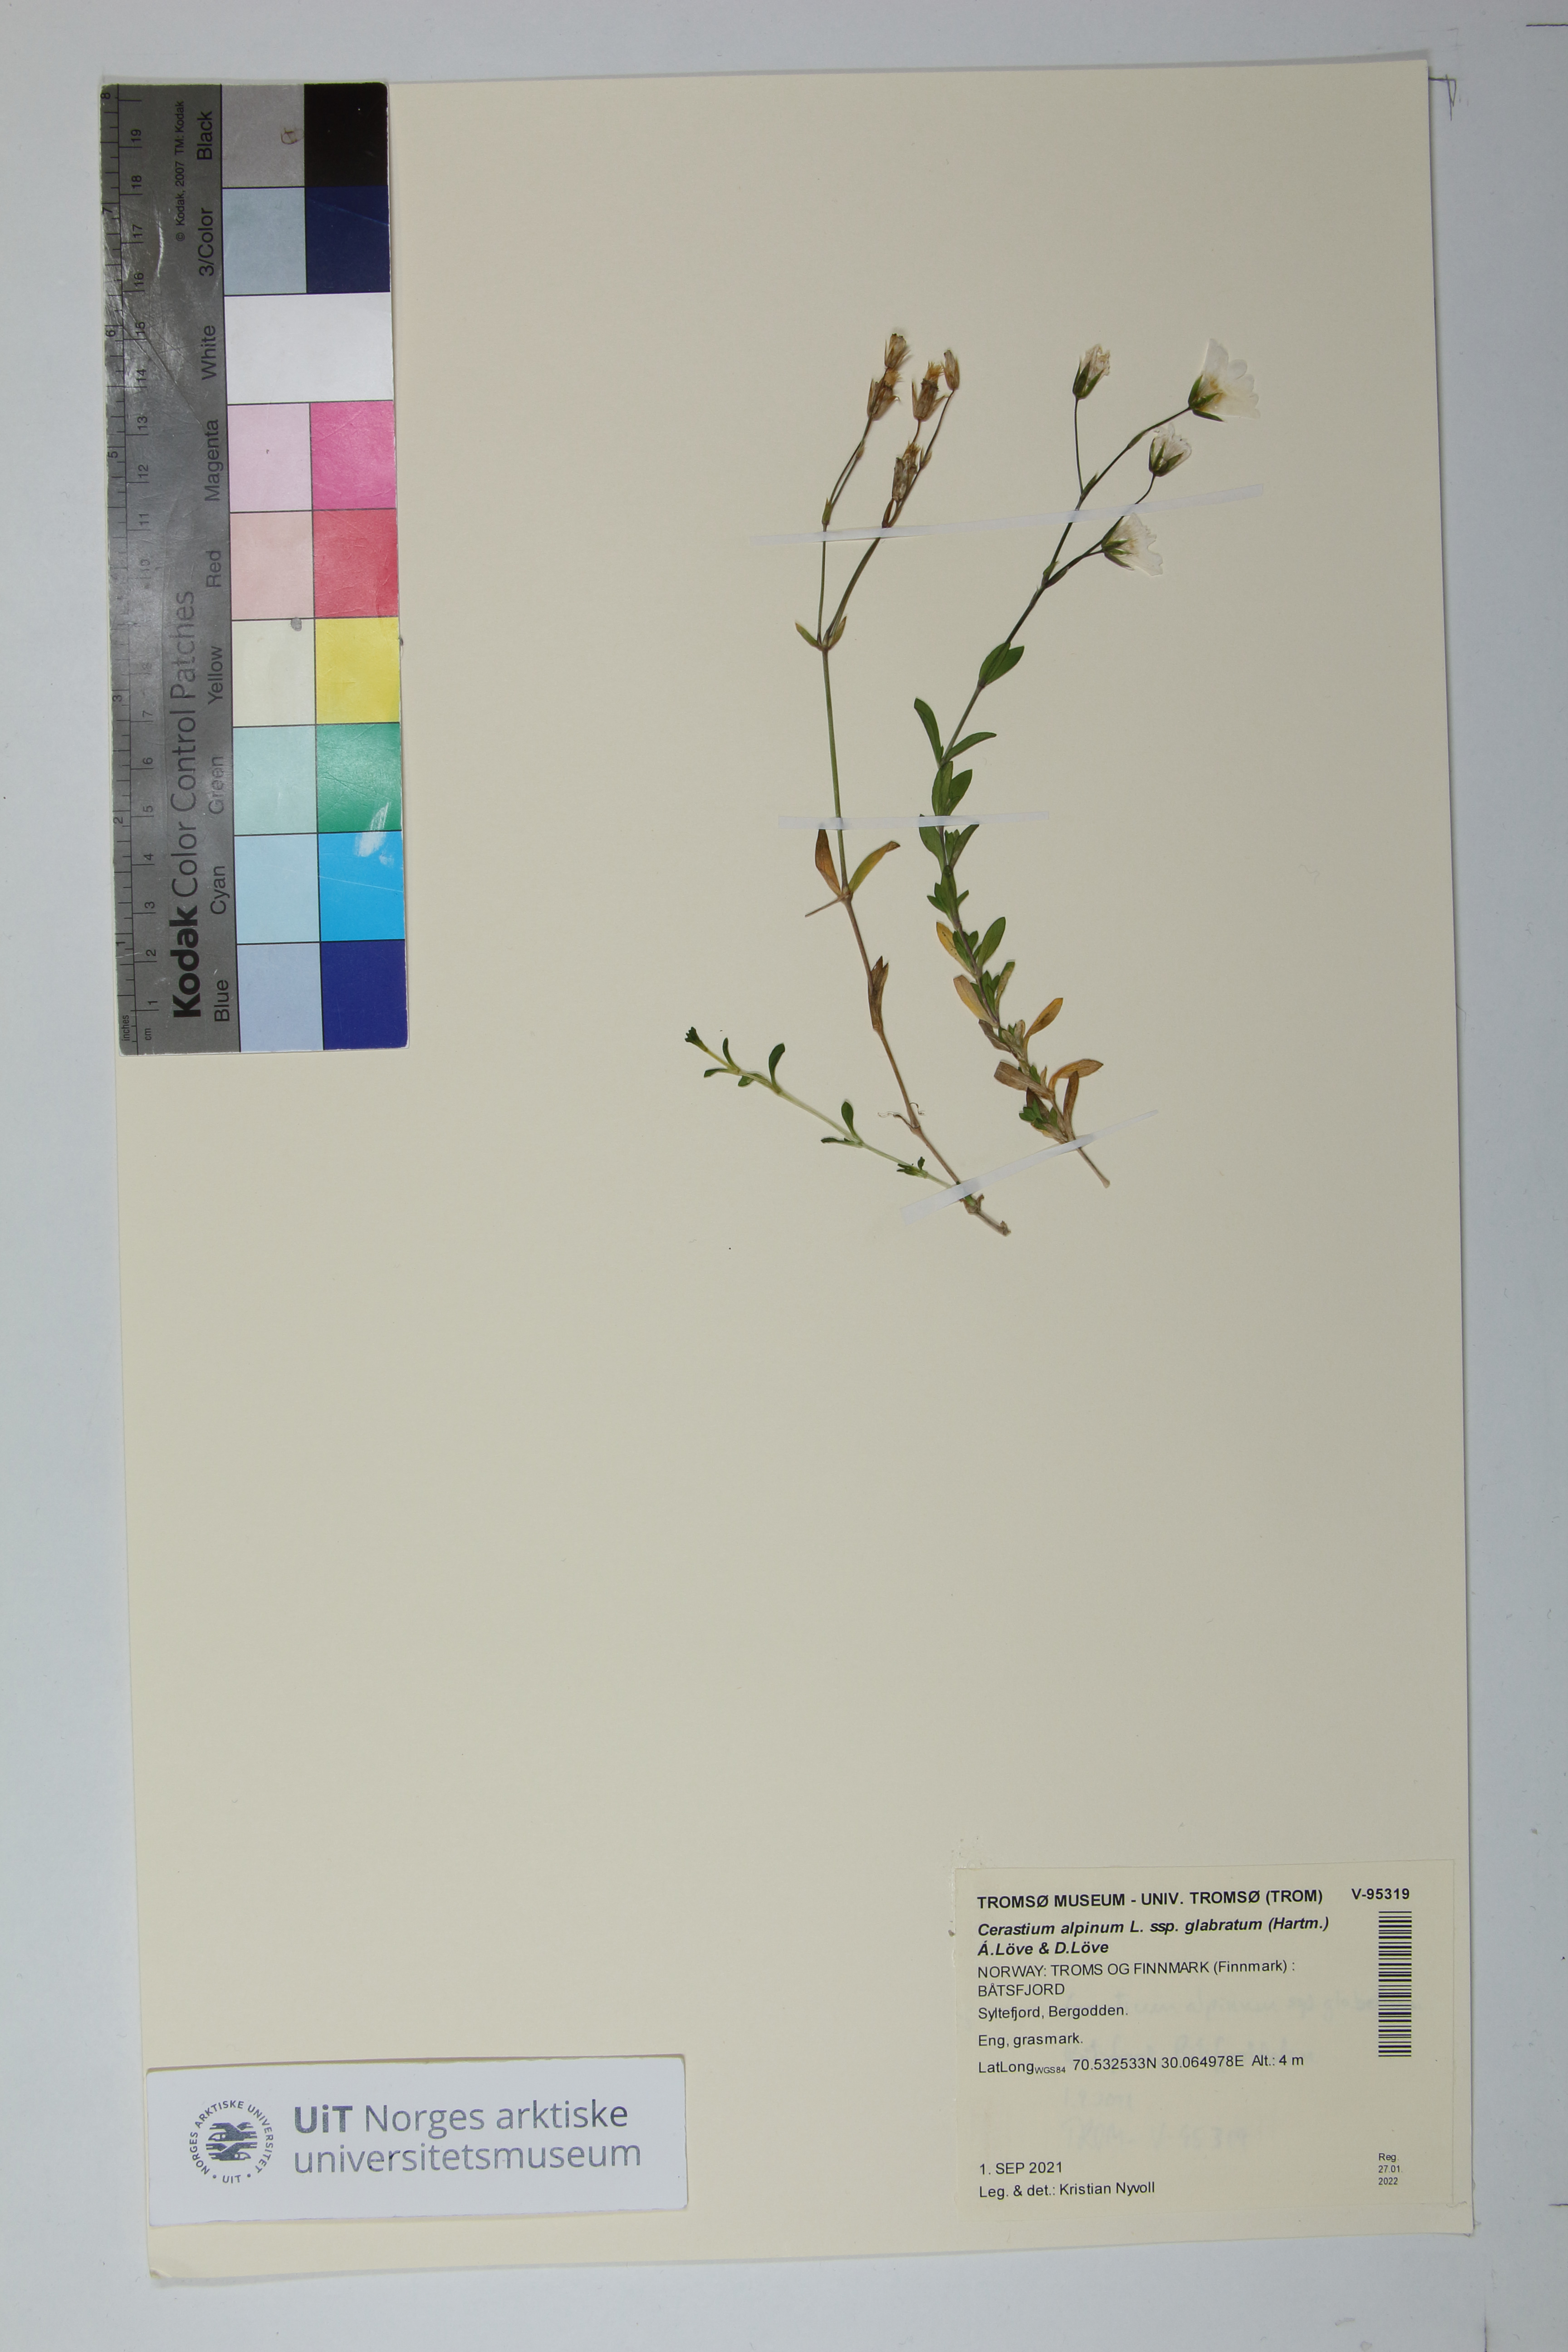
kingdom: Plantae
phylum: Tracheophyta
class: Magnoliopsida
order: Caryophyllales
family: Caryophyllaceae
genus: Cerastium
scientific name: Cerastium alpinum
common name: Alpine mouse-ear
